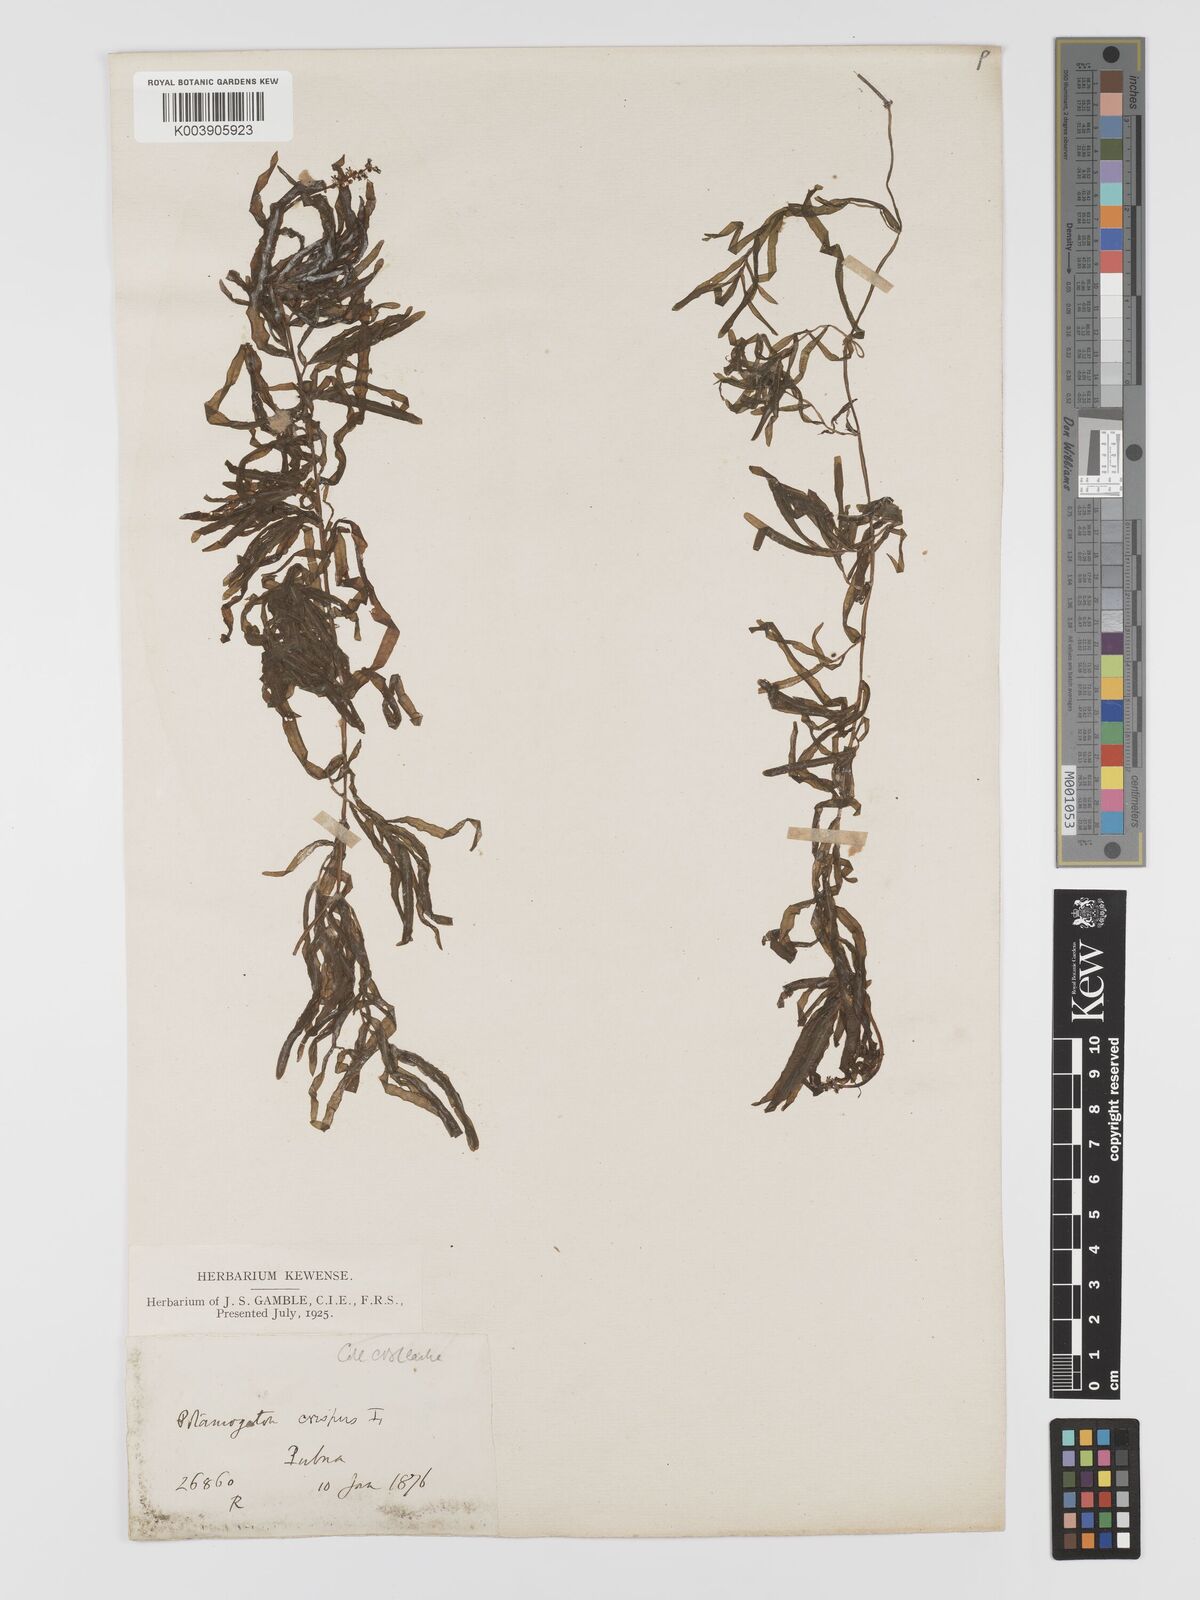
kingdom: Plantae
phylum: Tracheophyta
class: Liliopsida
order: Alismatales
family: Potamogetonaceae
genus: Potamogeton
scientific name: Potamogeton crispus
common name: Curled pondweed
